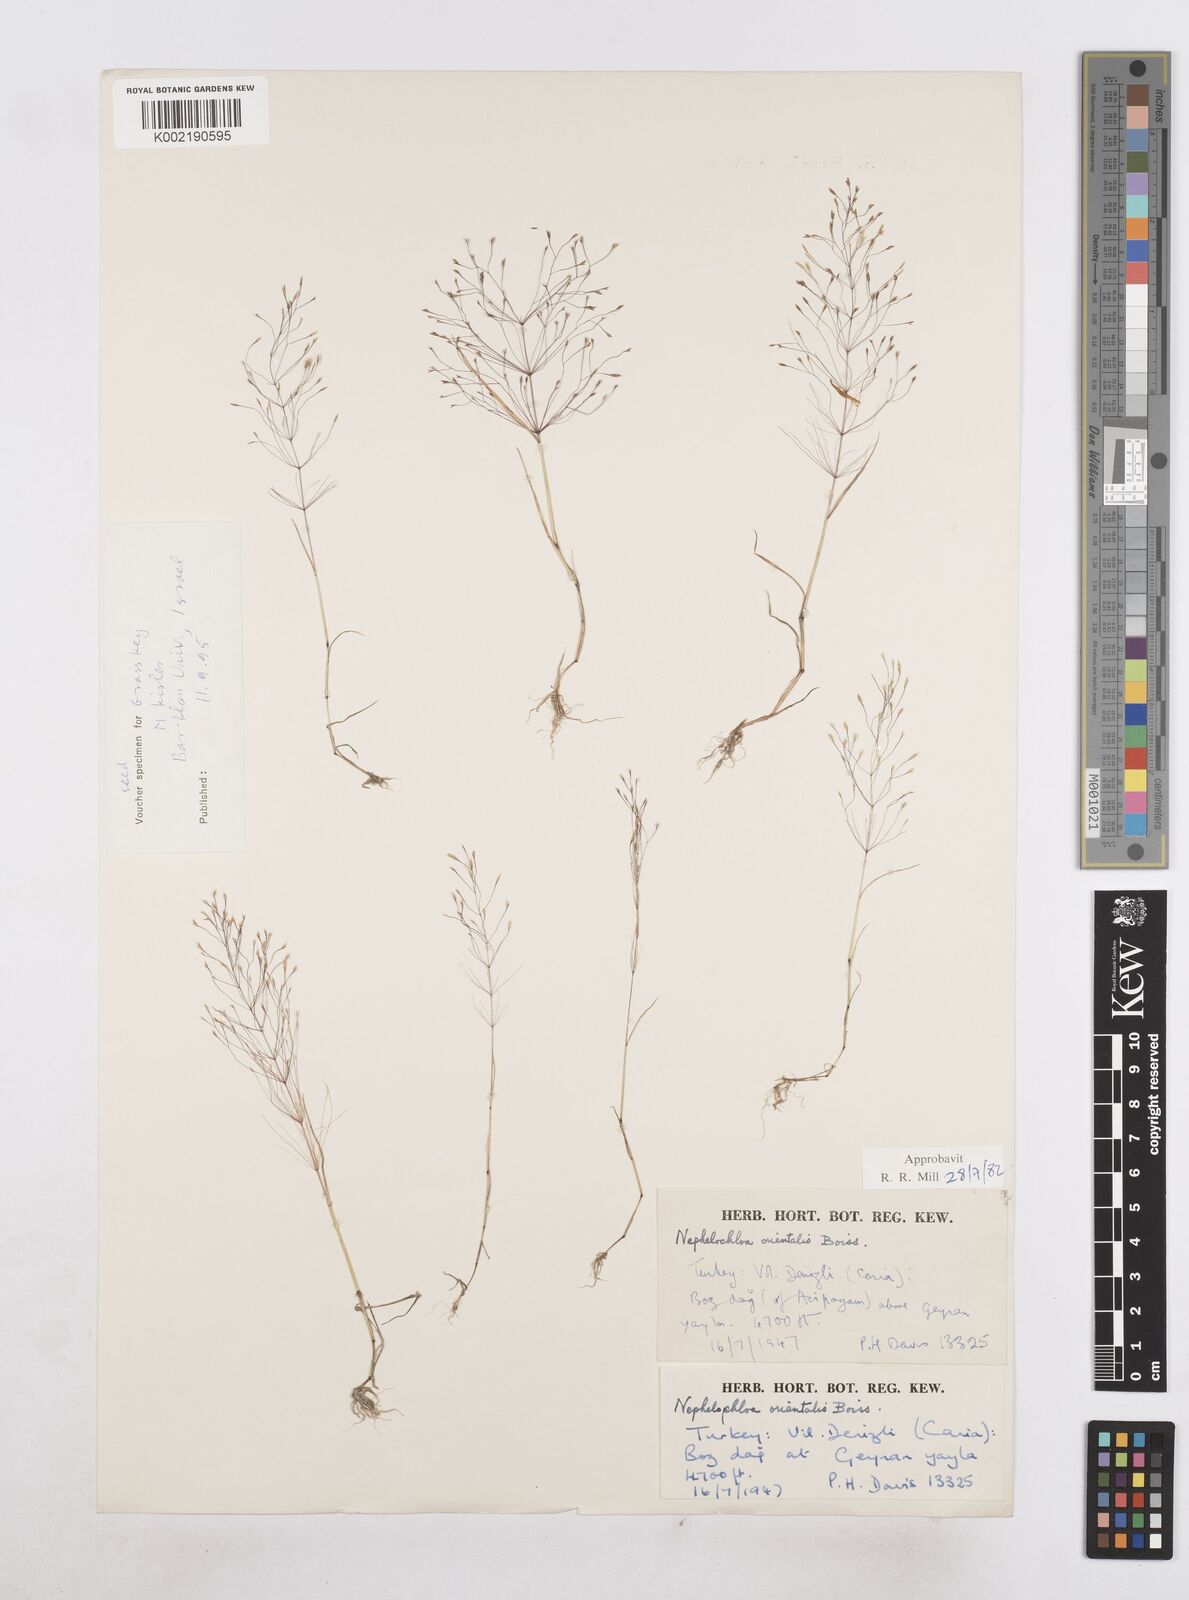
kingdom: Plantae
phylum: Tracheophyta
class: Liliopsida
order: Poales
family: Poaceae
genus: Nephelochloa
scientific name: Nephelochloa orientalis
